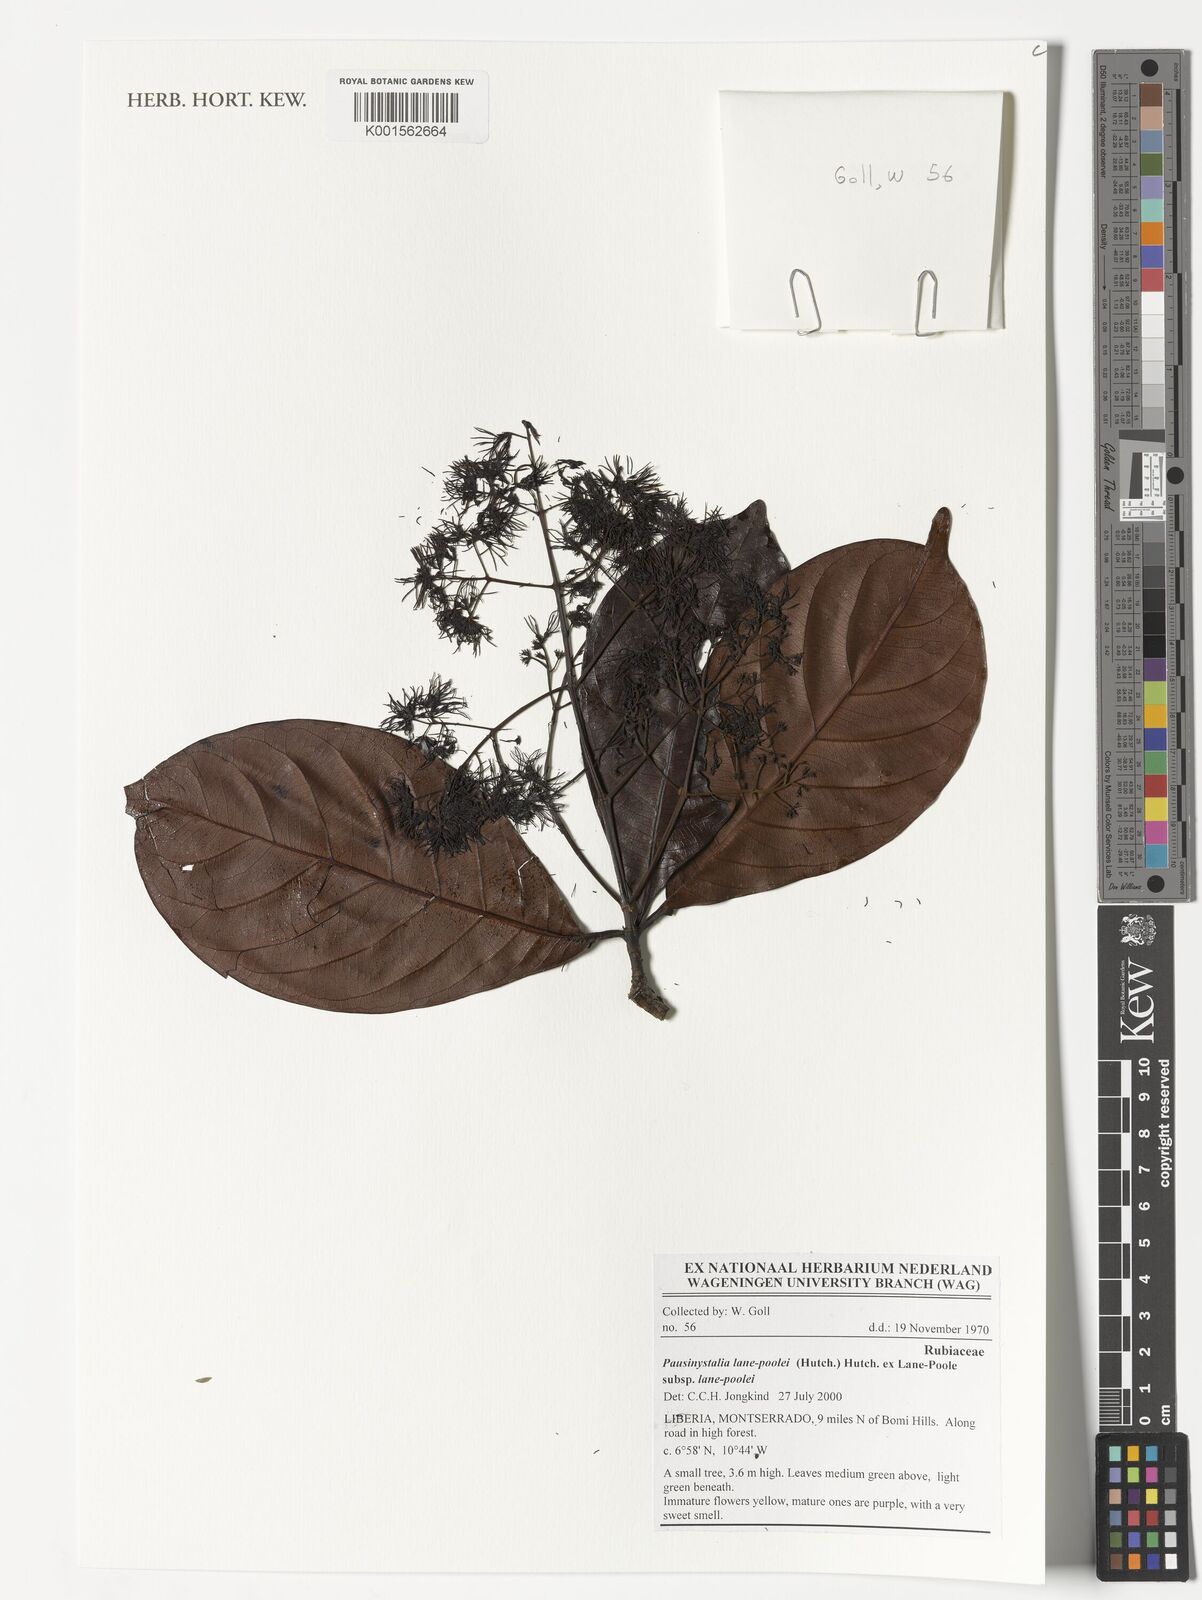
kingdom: Plantae
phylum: Tracheophyta
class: Magnoliopsida
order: Gentianales
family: Rubiaceae
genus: Corynanthe
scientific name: Corynanthe lane-poolei
